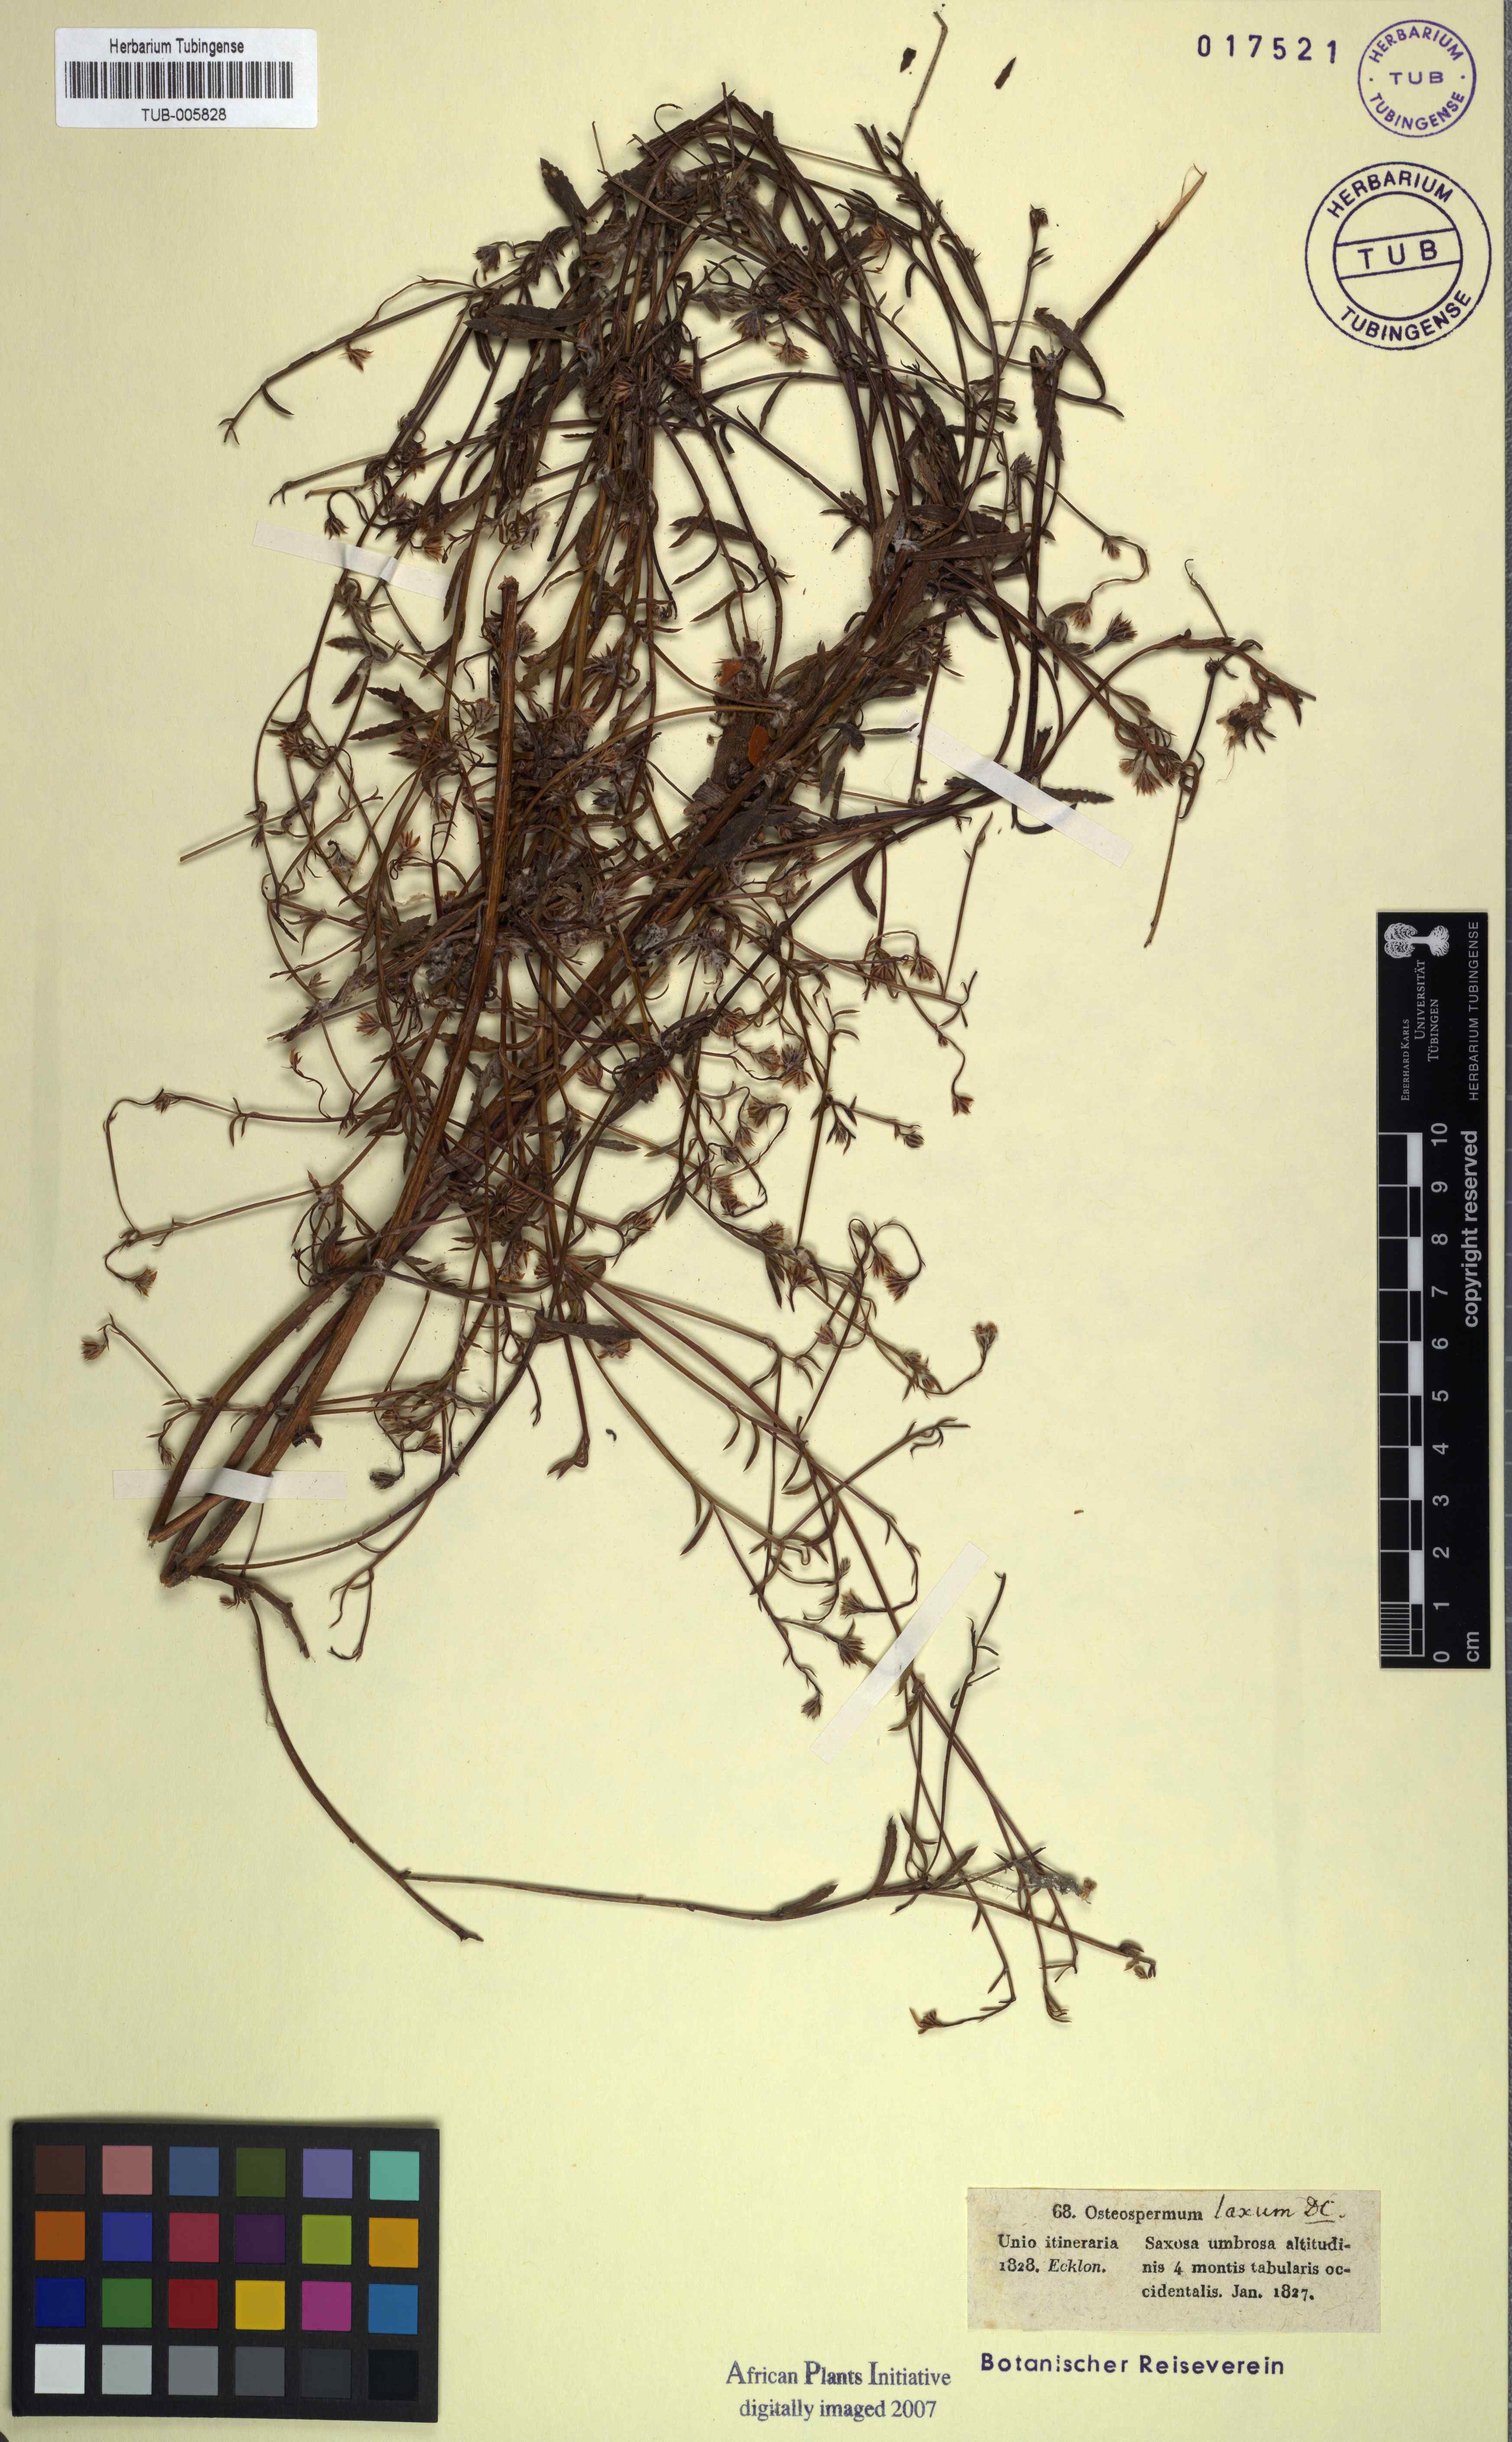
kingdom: Plantae
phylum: Tracheophyta
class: Magnoliopsida
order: Asterales
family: Asteraceae
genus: Osteospermum
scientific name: Osteospermum ciliatum
